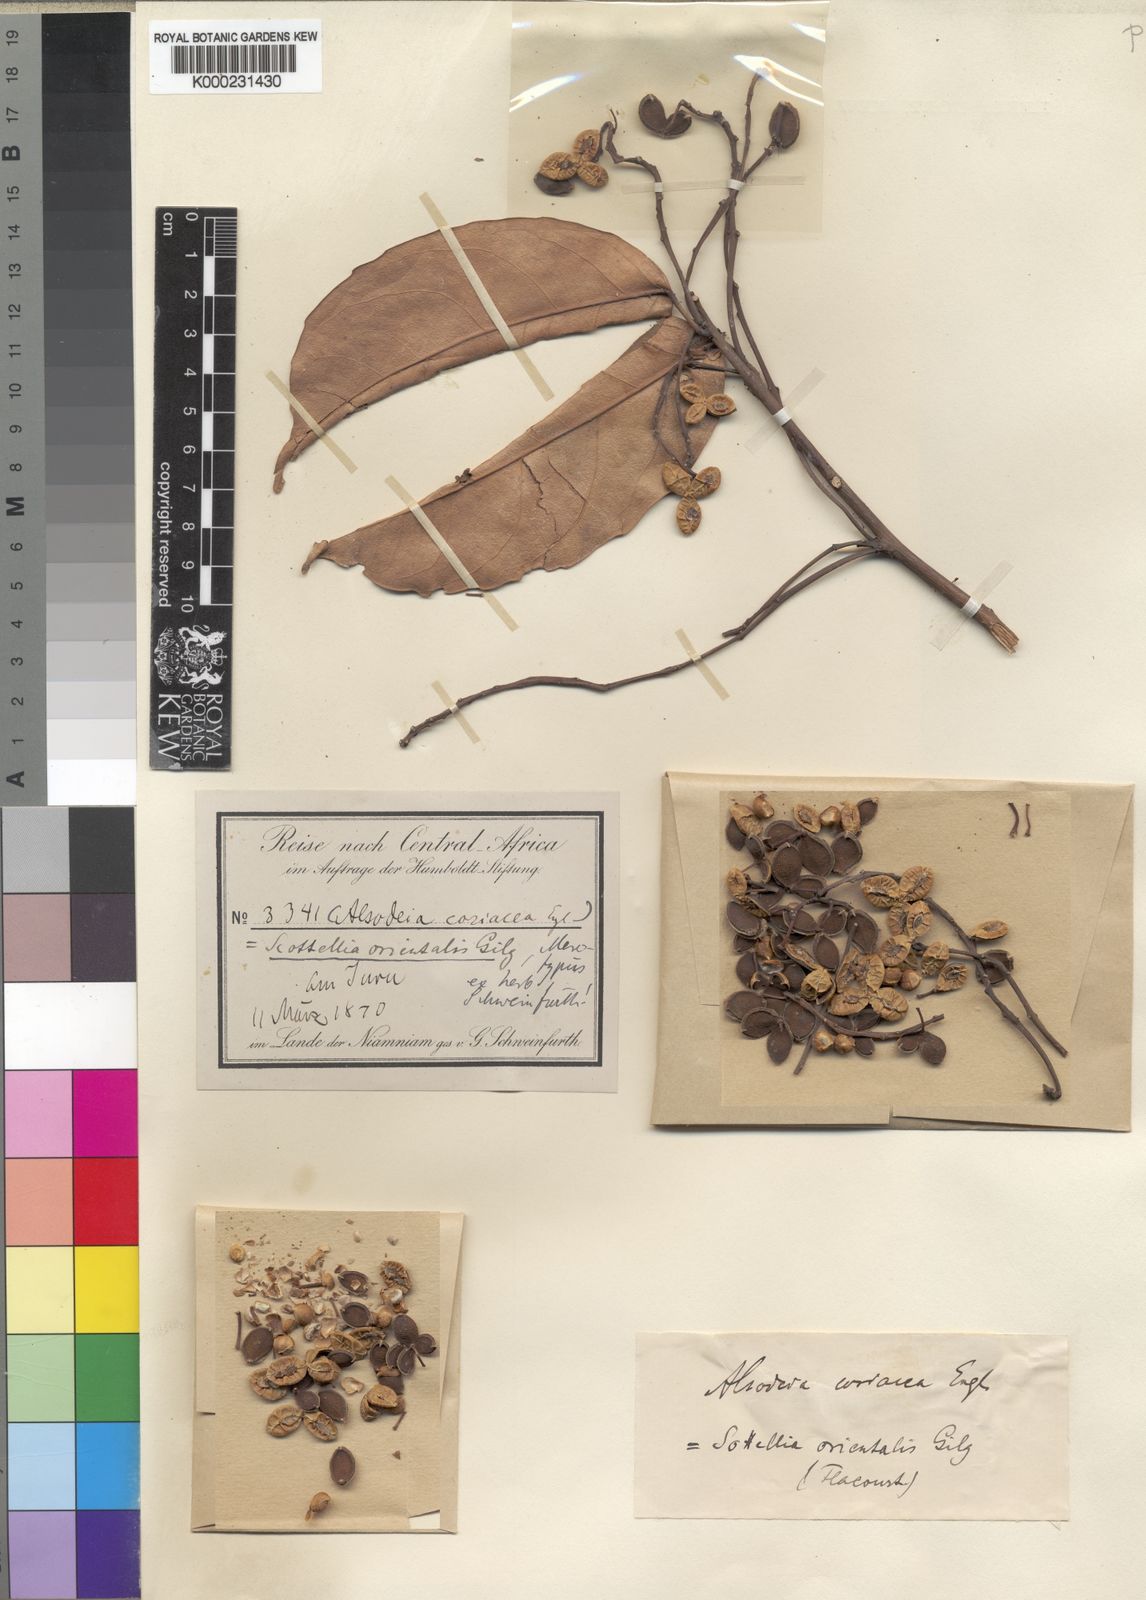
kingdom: Plantae
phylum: Tracheophyta
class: Magnoliopsida
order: Malpighiales
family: Achariaceae
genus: Scottellia
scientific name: Scottellia orientalis
